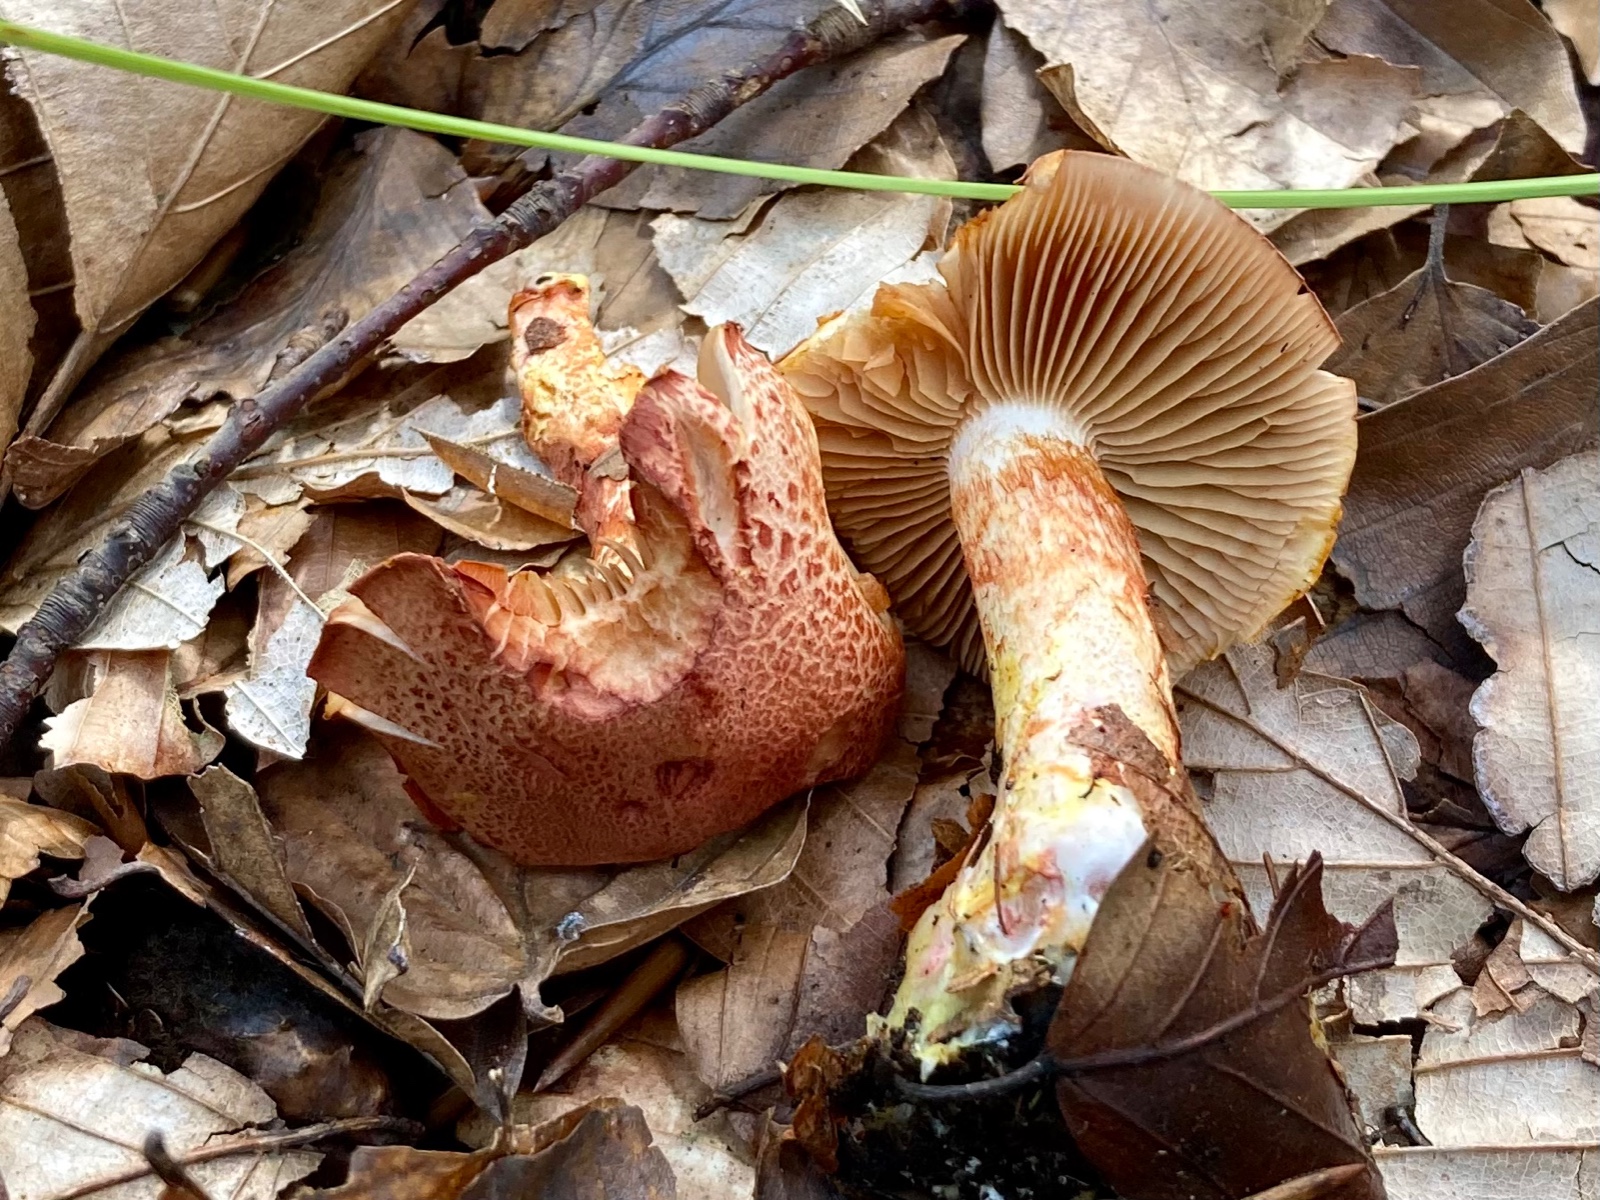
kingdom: Fungi
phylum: Basidiomycota
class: Agaricomycetes
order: Agaricales
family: Cortinariaceae
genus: Cortinarius
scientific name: Cortinarius bolaris
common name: cinnoberskællet slørhat
